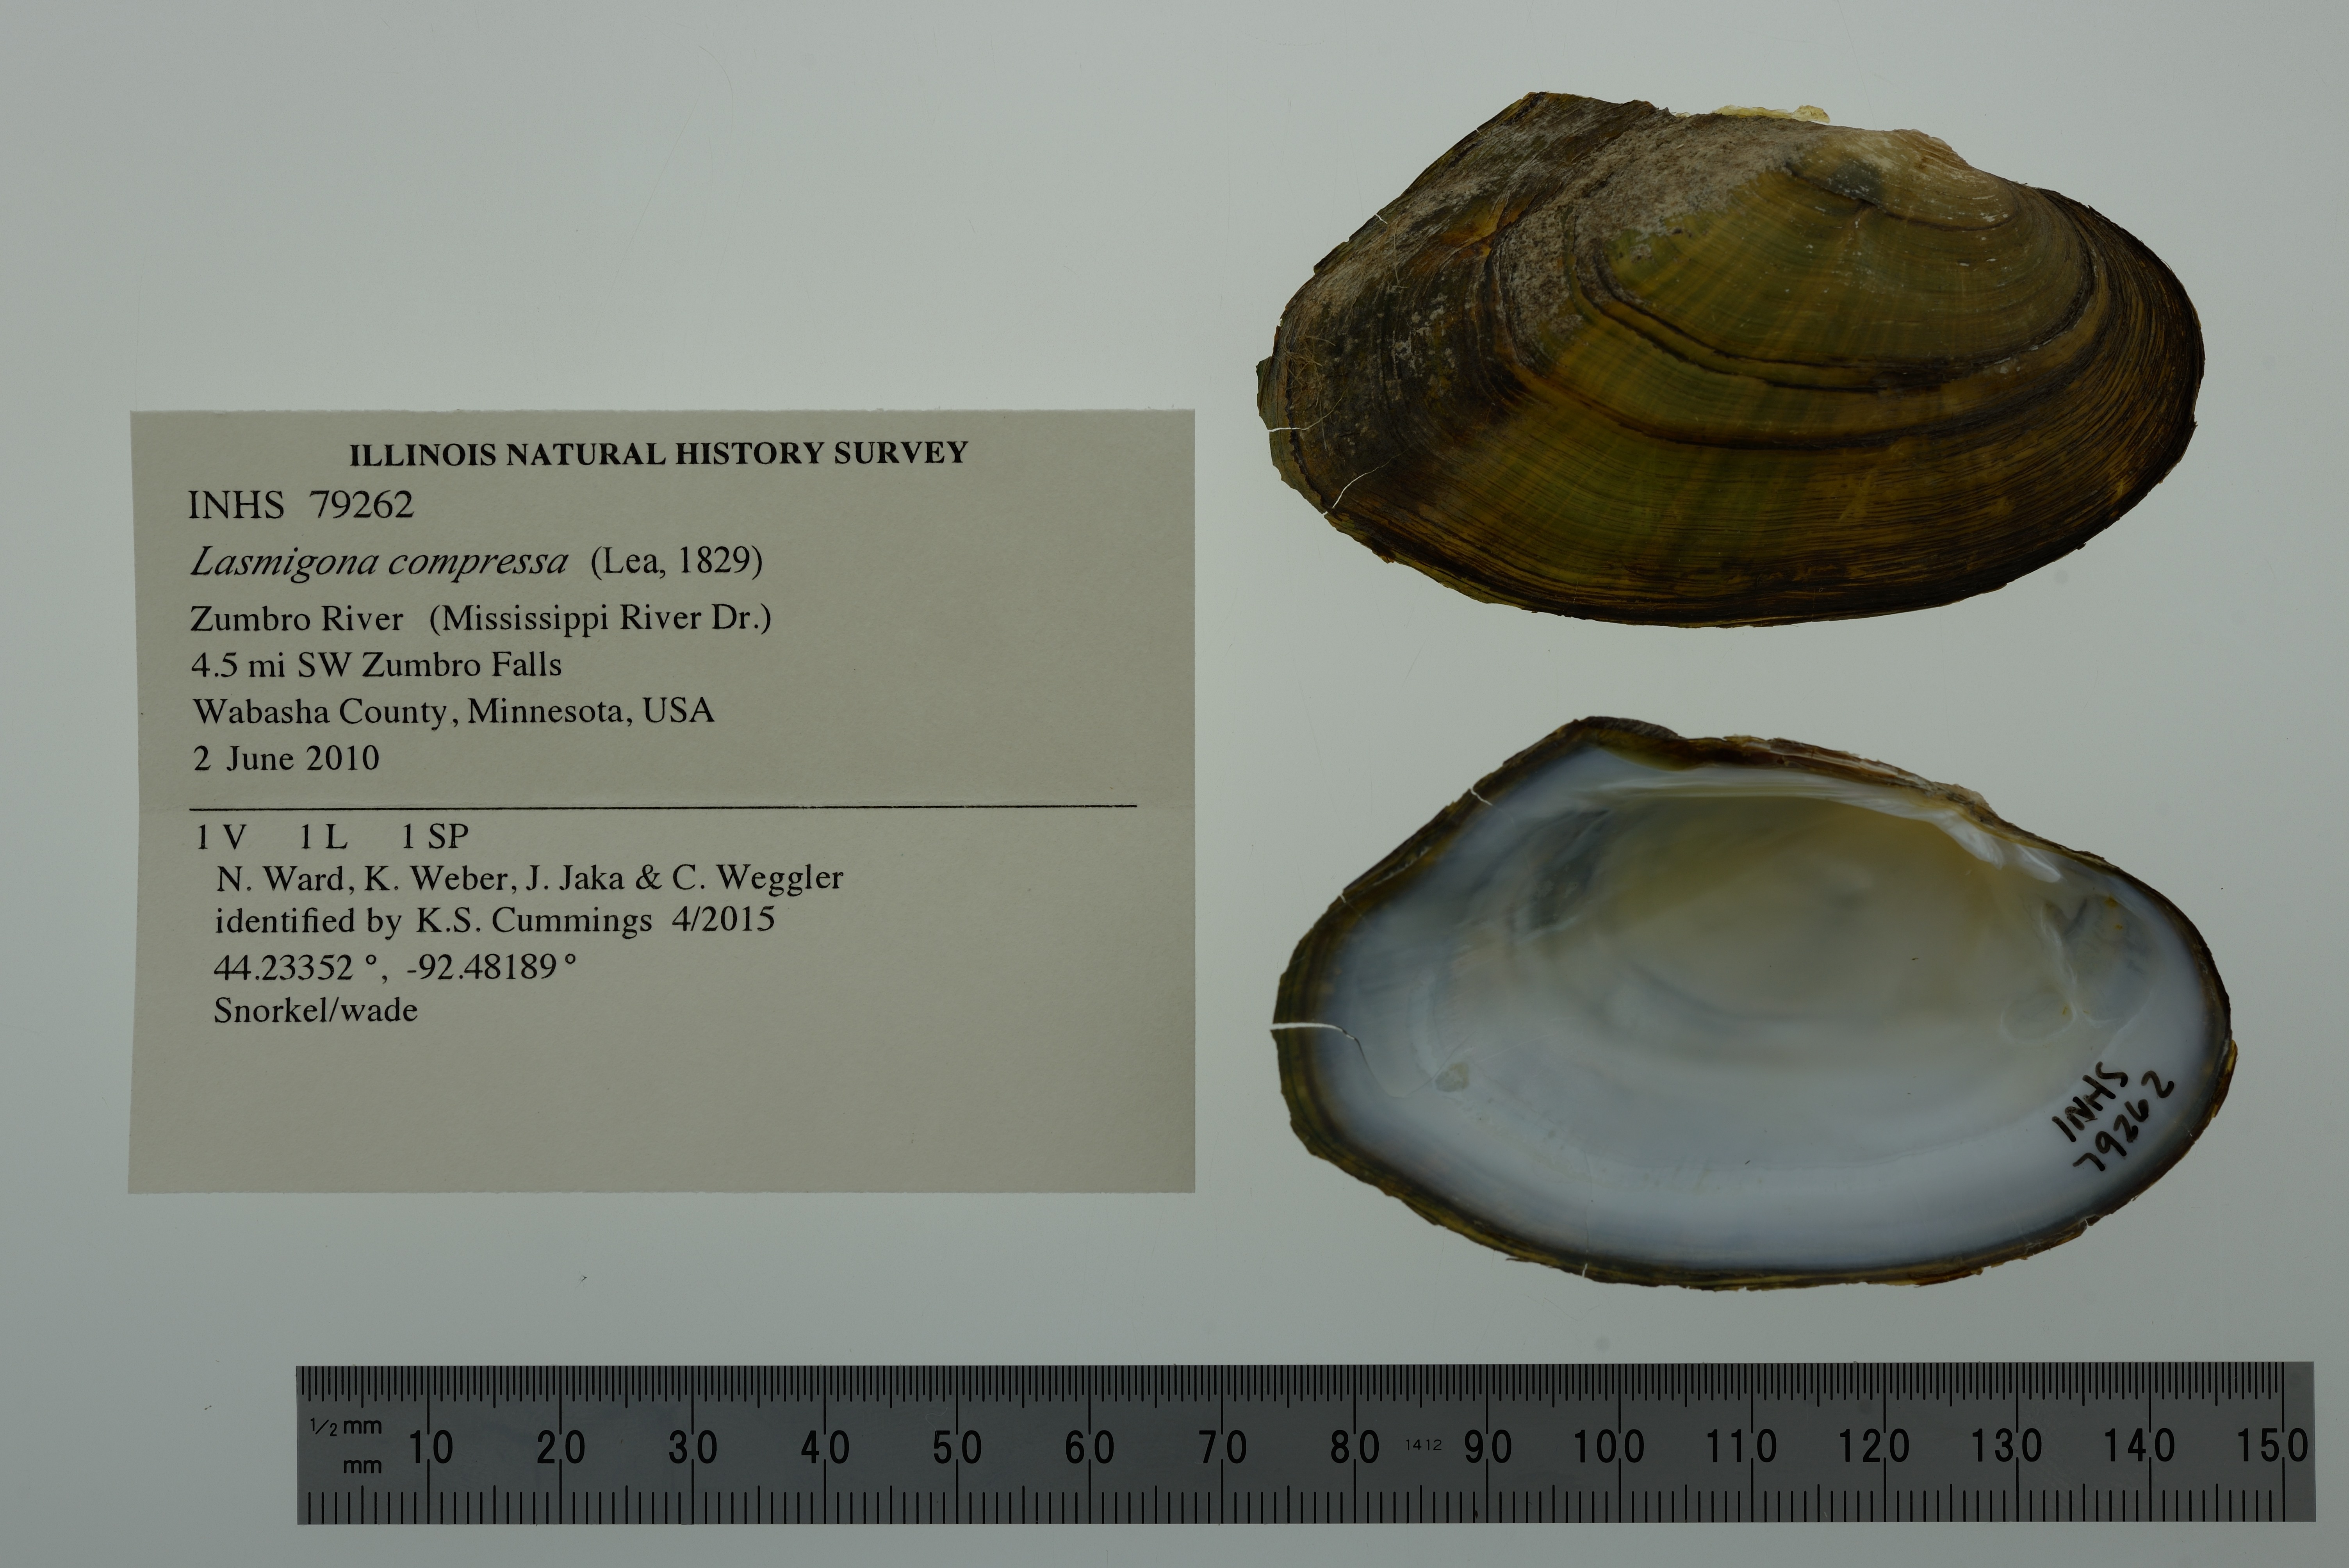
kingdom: Animalia
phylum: Mollusca
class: Bivalvia
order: Unionida
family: Unionidae
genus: Lasmigona
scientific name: Lasmigona compressa
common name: Creek heelsplitter
